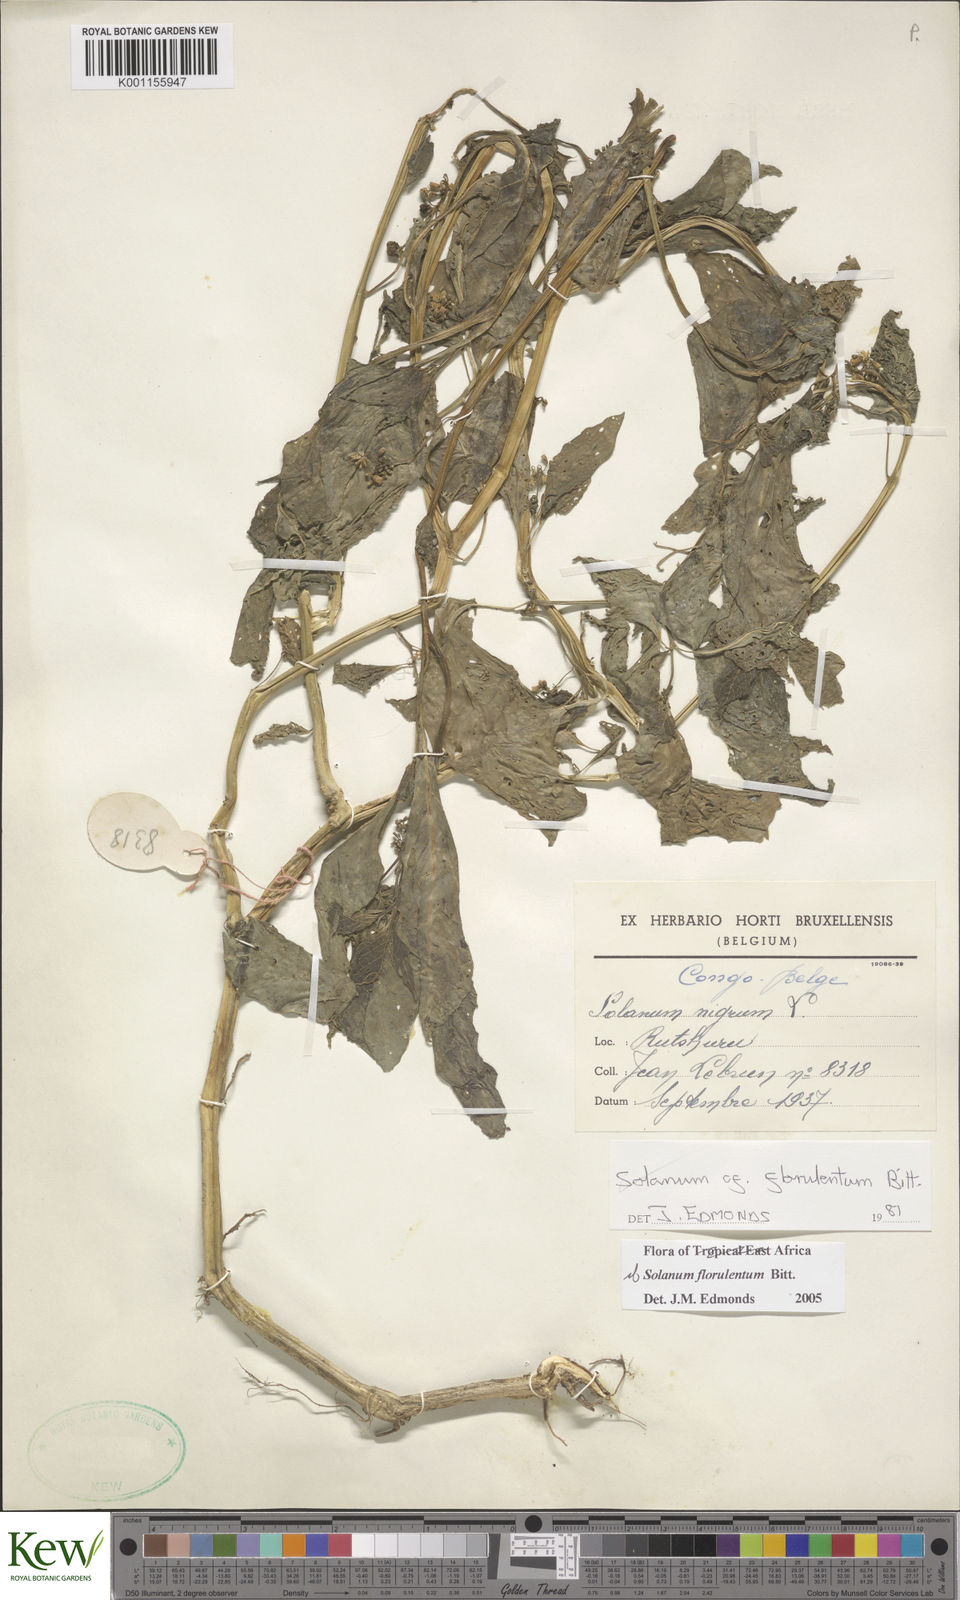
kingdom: Plantae
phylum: Tracheophyta
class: Magnoliopsida
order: Solanales
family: Solanaceae
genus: Solanum
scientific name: Solanum tarderemotum
